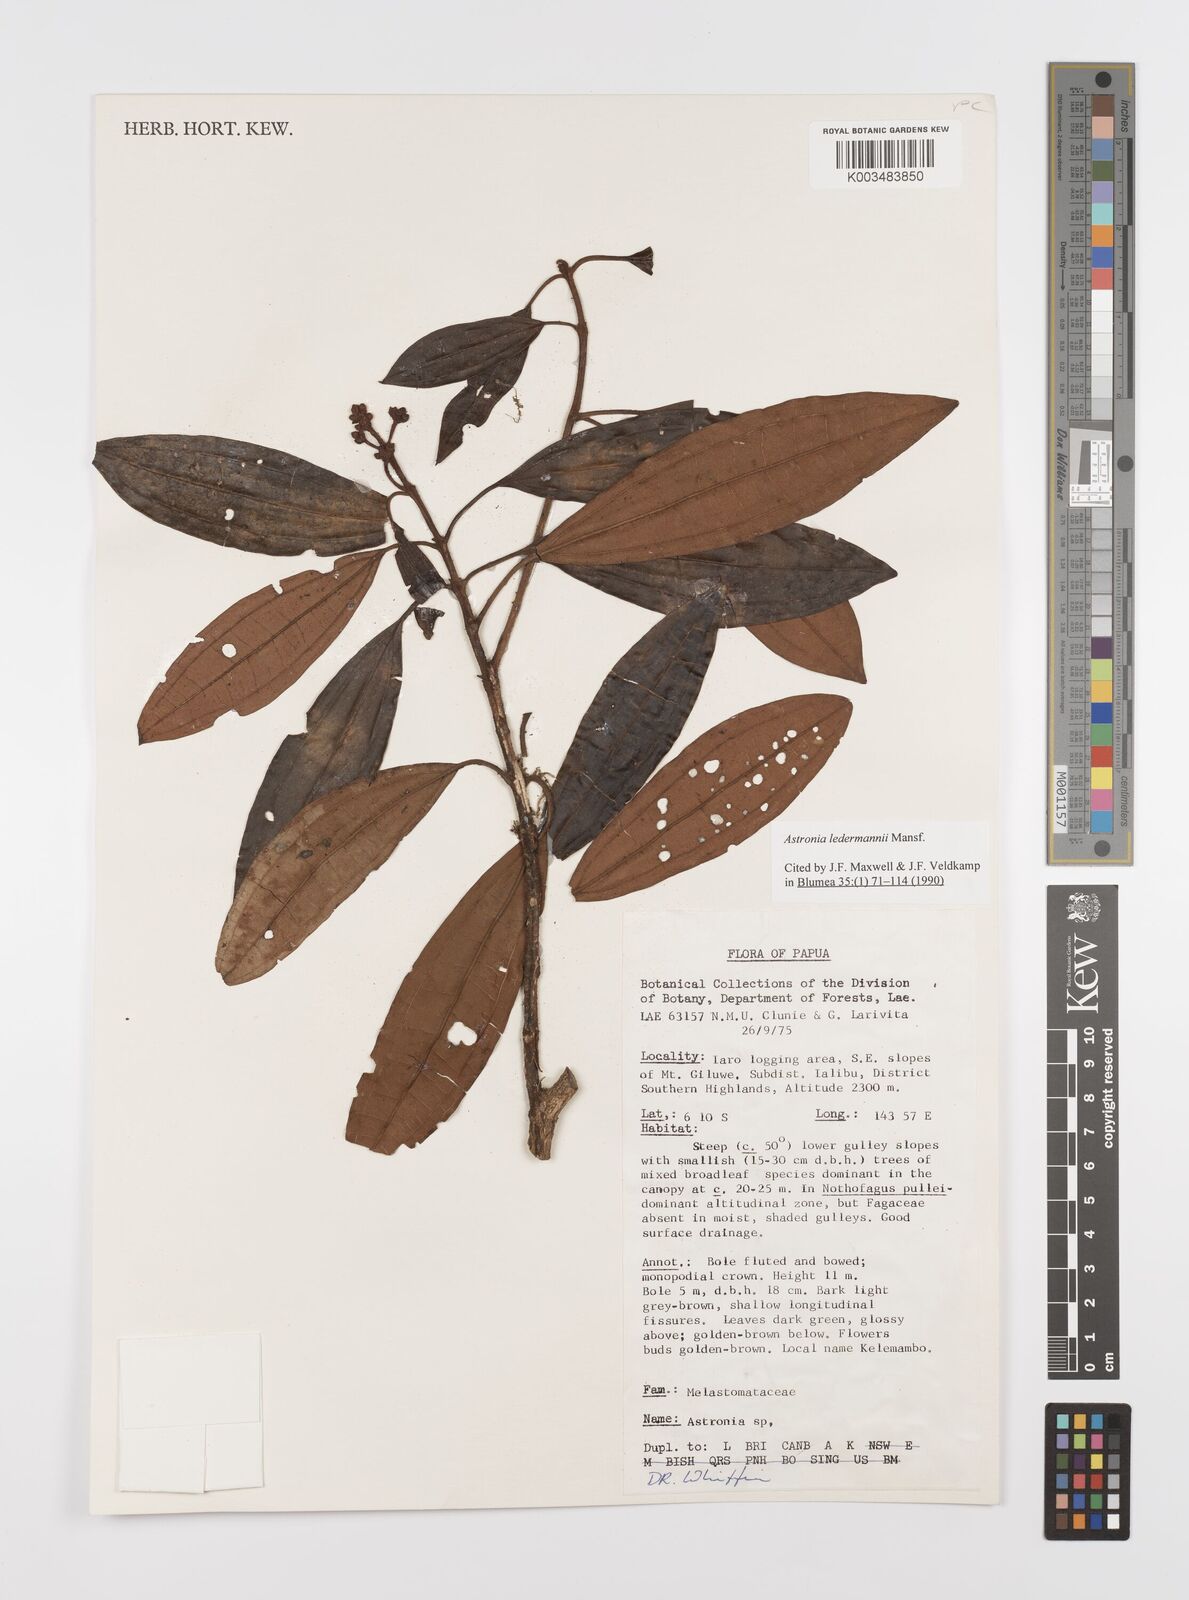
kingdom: Plantae
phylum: Tracheophyta
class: Magnoliopsida
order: Myrtales
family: Melastomataceae
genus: Astronia
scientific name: Astronia ledermannii
